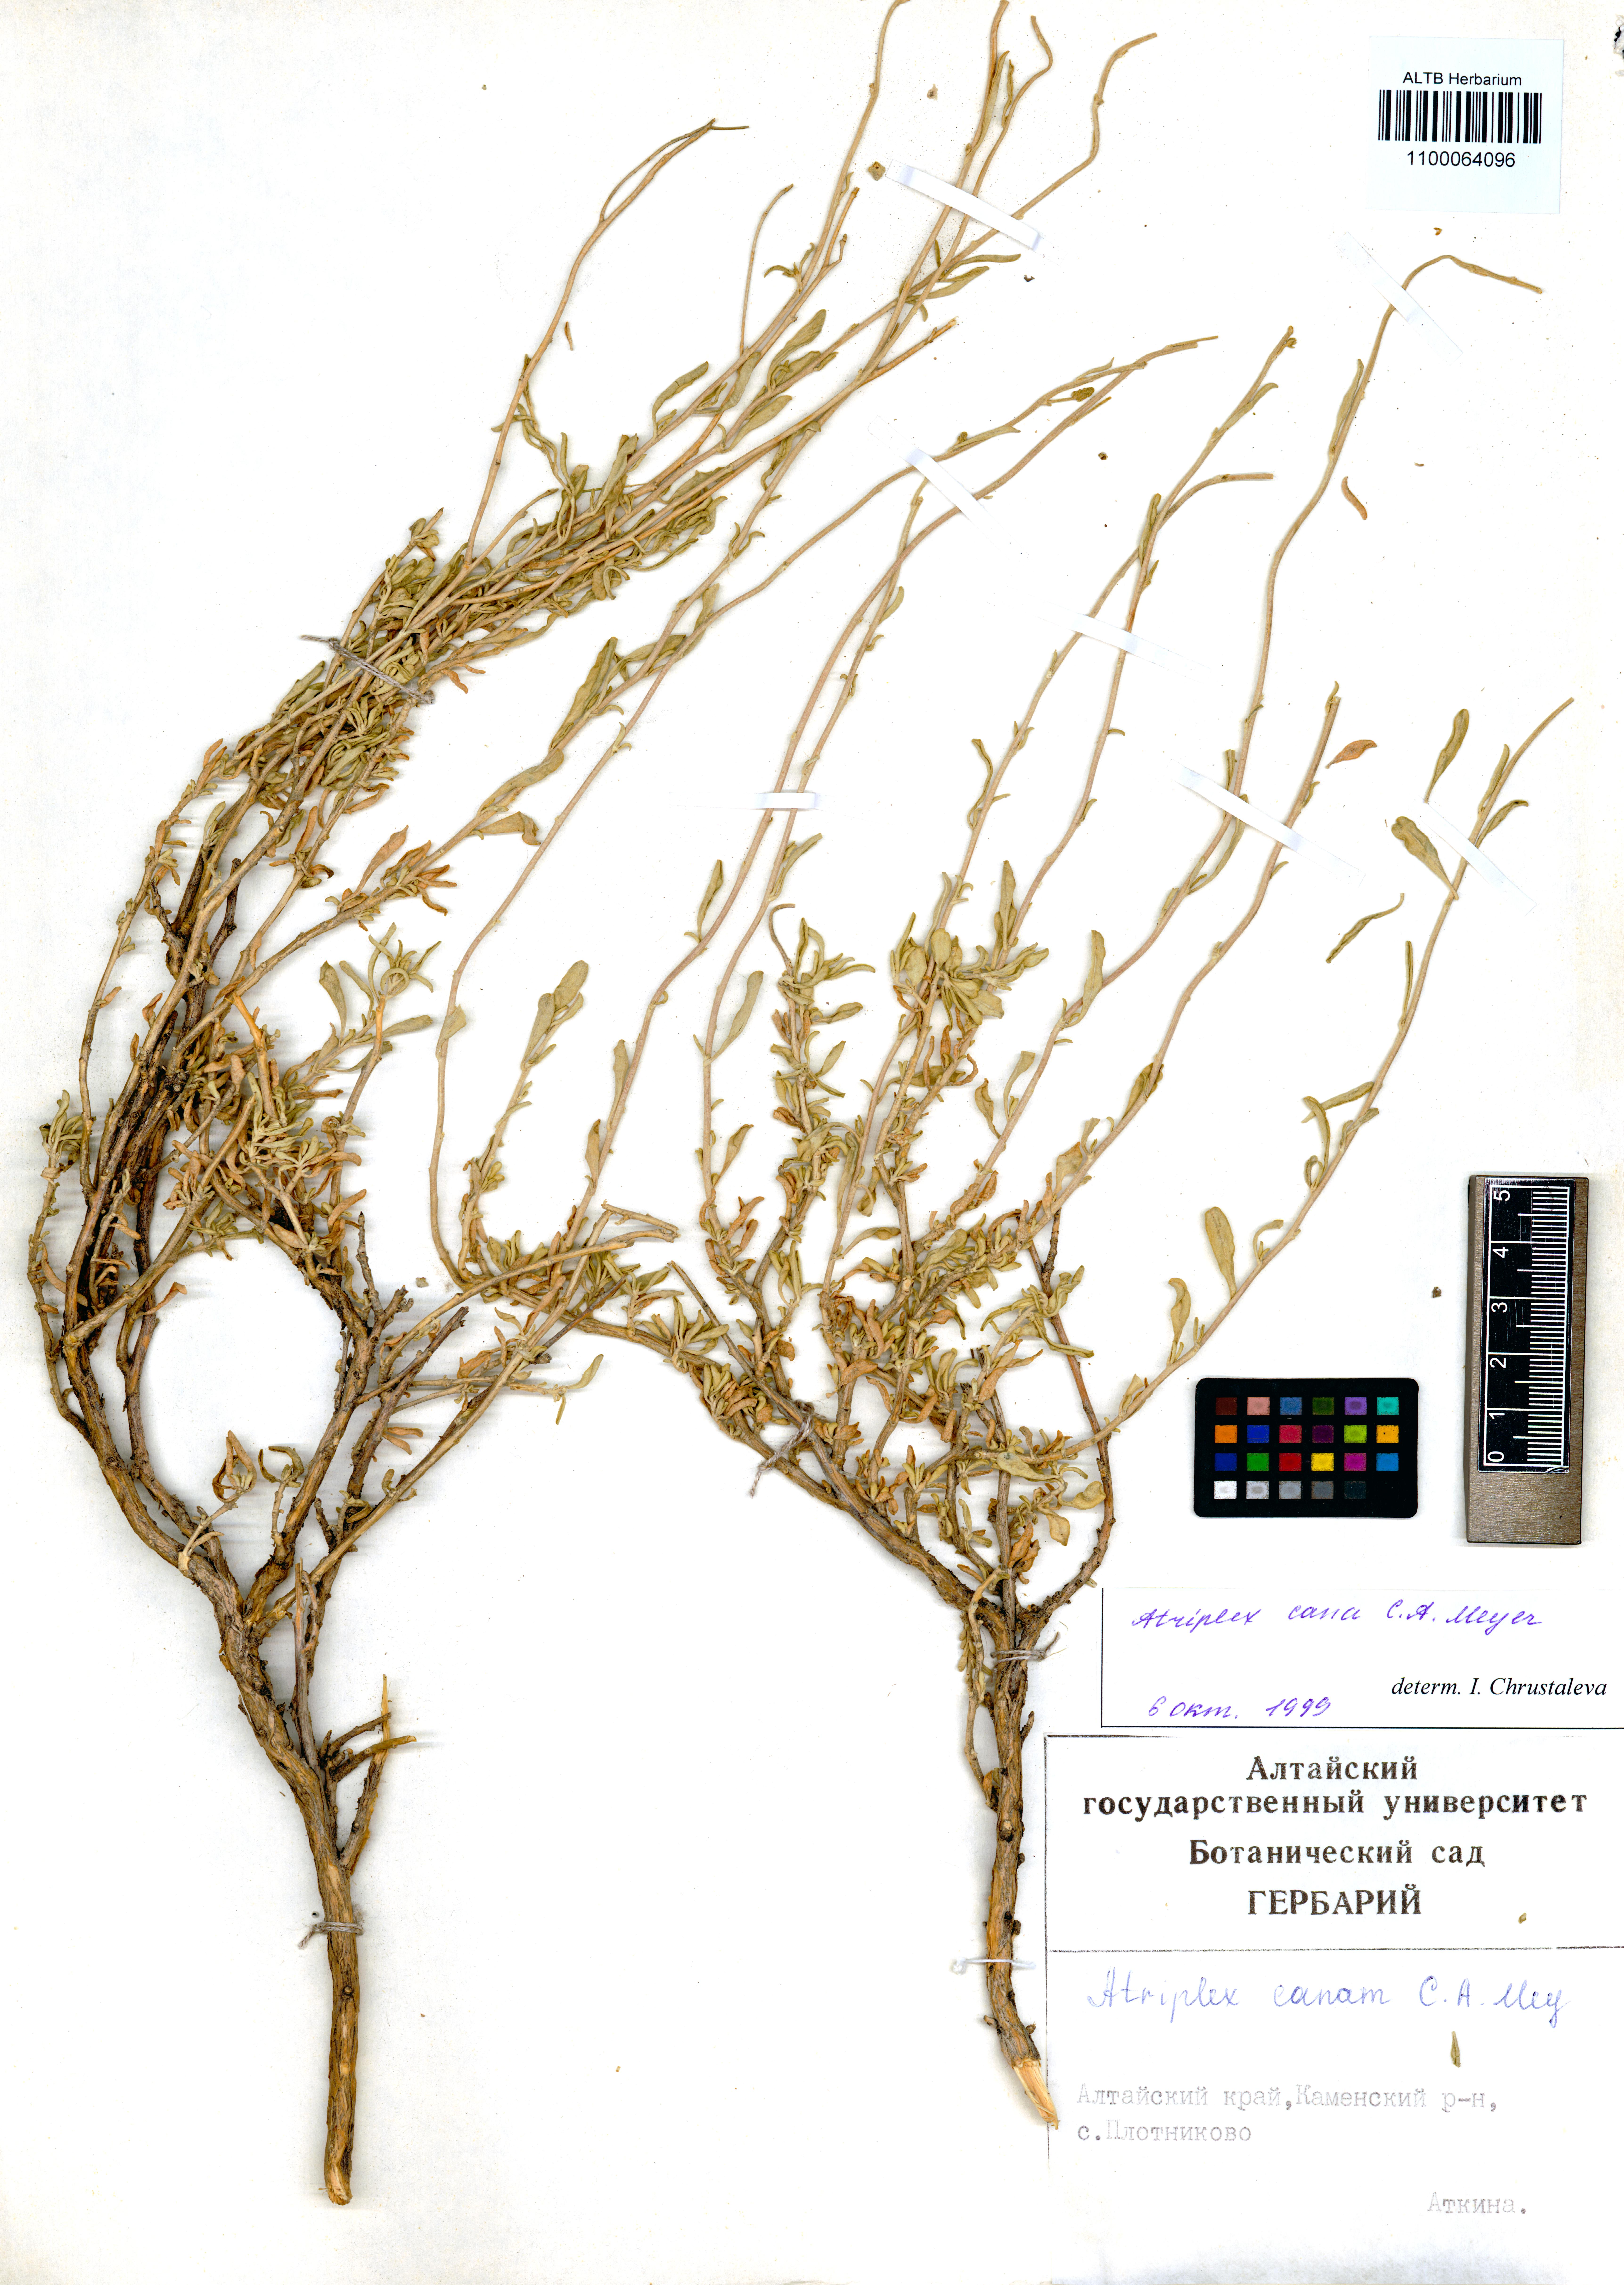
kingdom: Plantae
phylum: Tracheophyta
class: Magnoliopsida
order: Caryophyllales
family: Amaranthaceae
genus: Atriplex
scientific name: Atriplex cana
